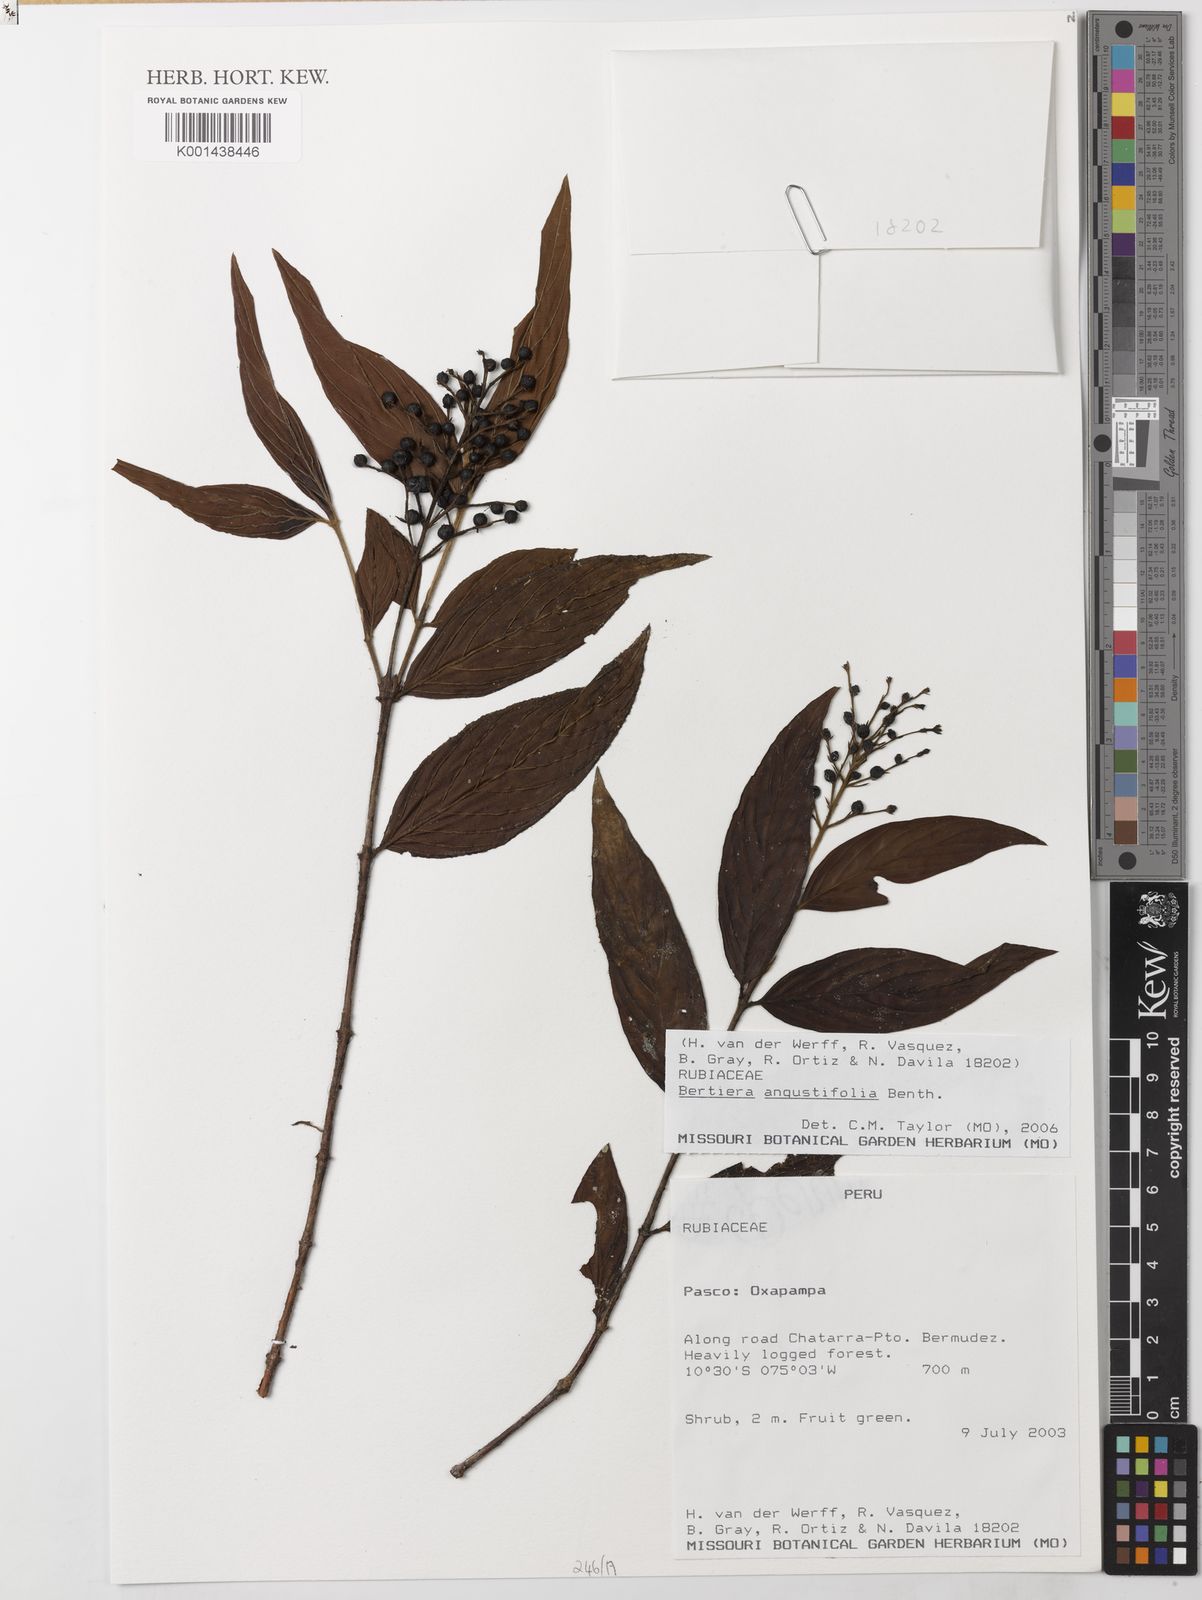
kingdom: Plantae
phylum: Tracheophyta
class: Magnoliopsida
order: Gentianales
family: Rubiaceae
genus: Bertiera
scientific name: Bertiera angustifolia
